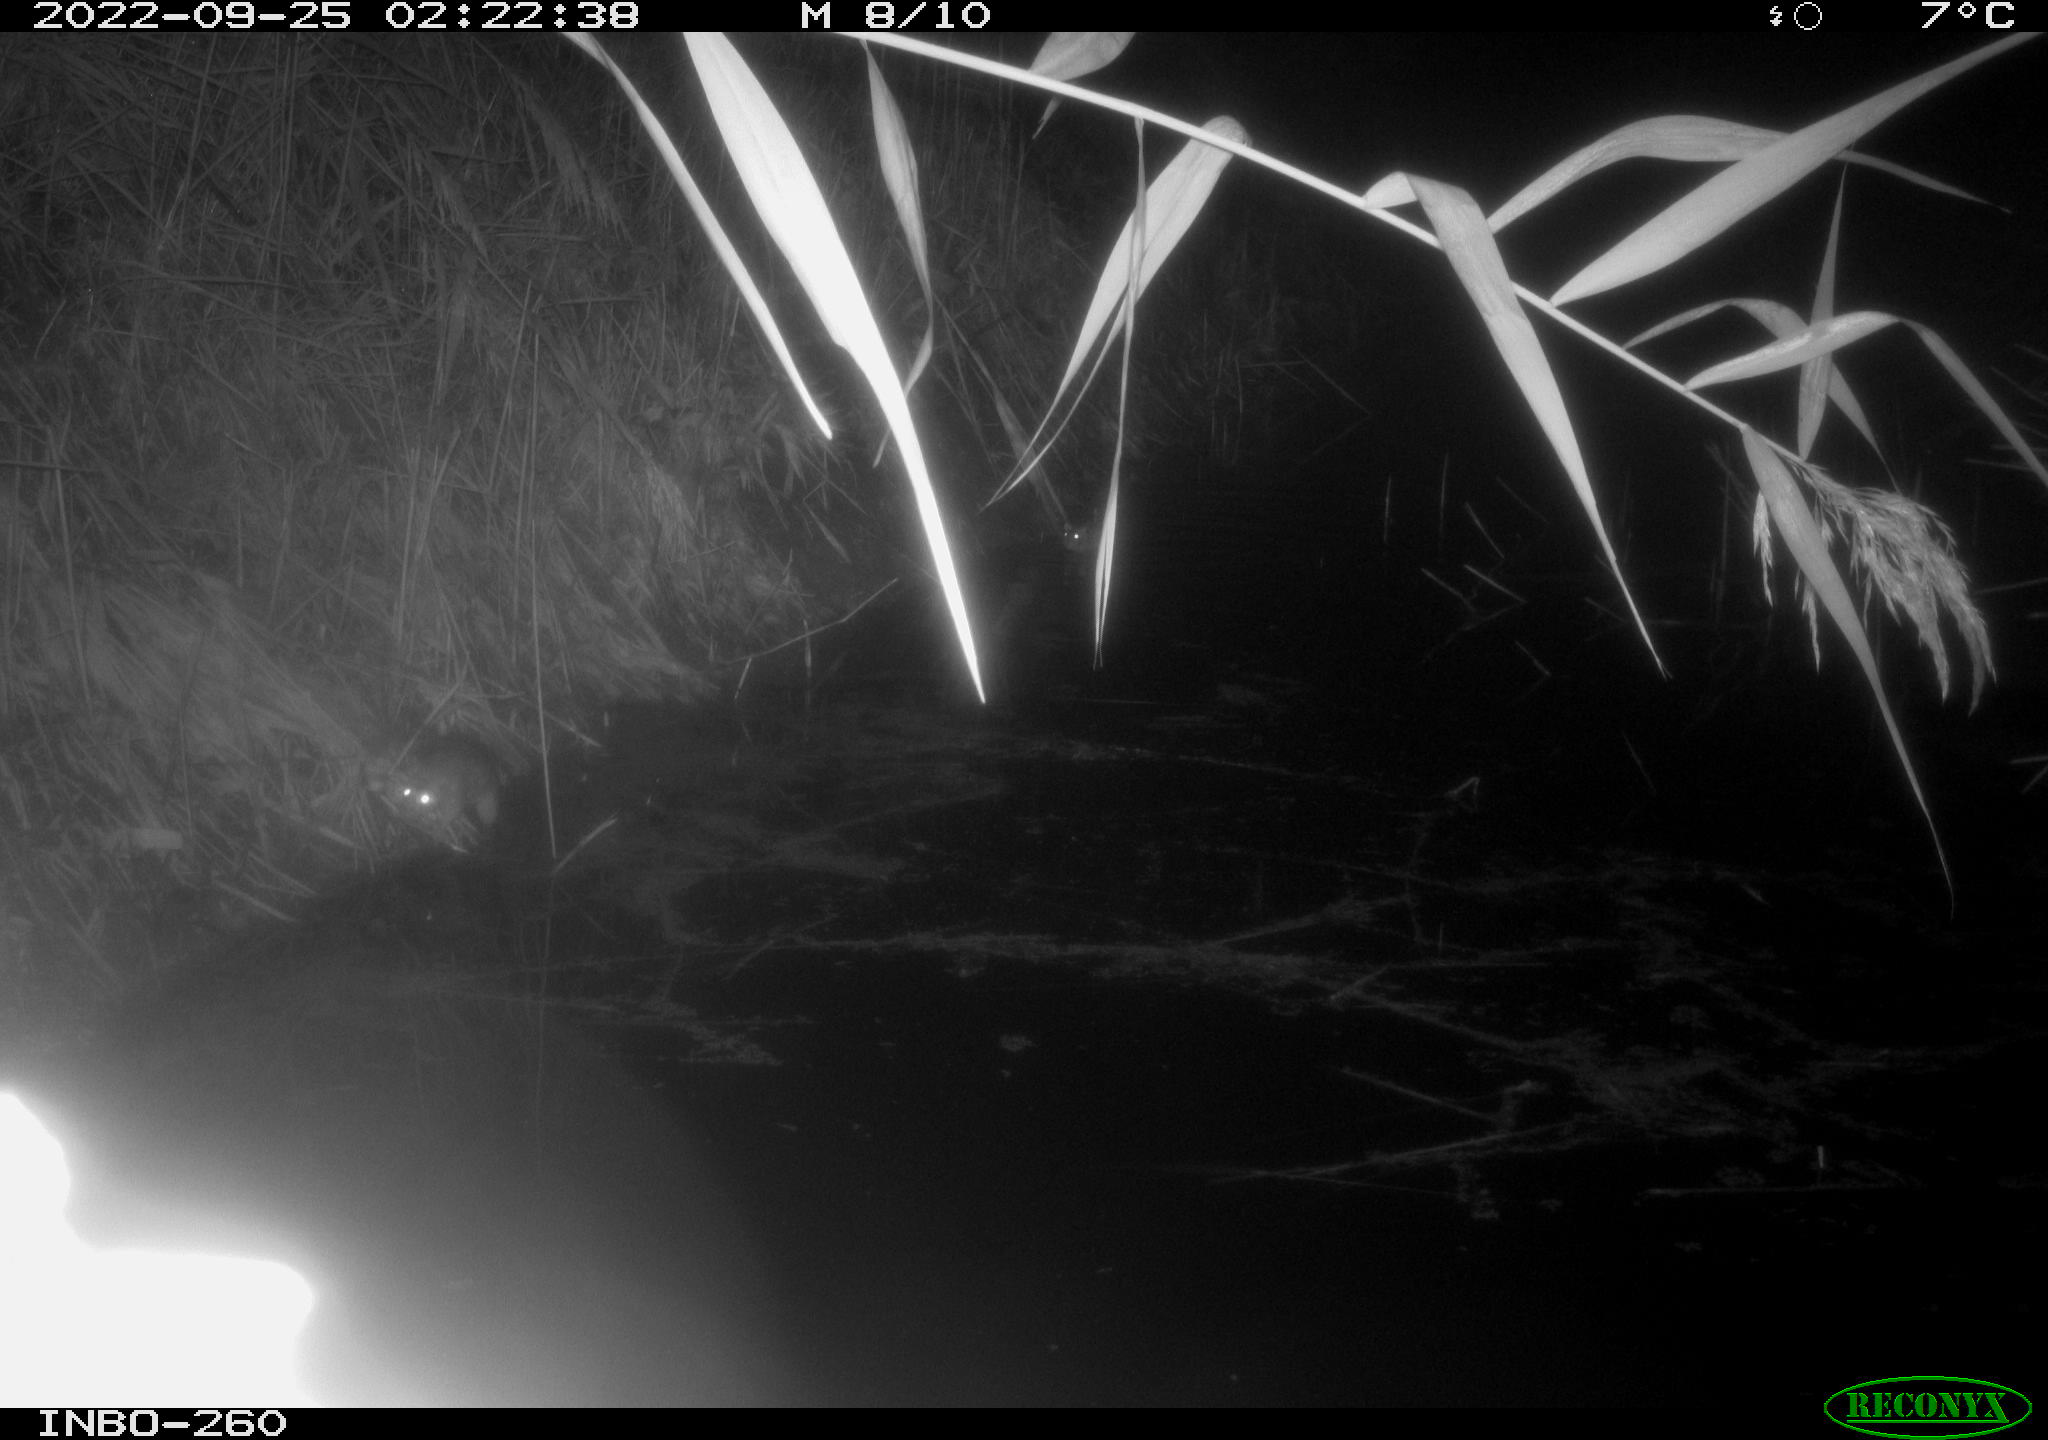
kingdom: Animalia
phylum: Chordata
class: Mammalia
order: Rodentia
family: Muridae
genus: Rattus
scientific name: Rattus norvegicus
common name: Brown rat
